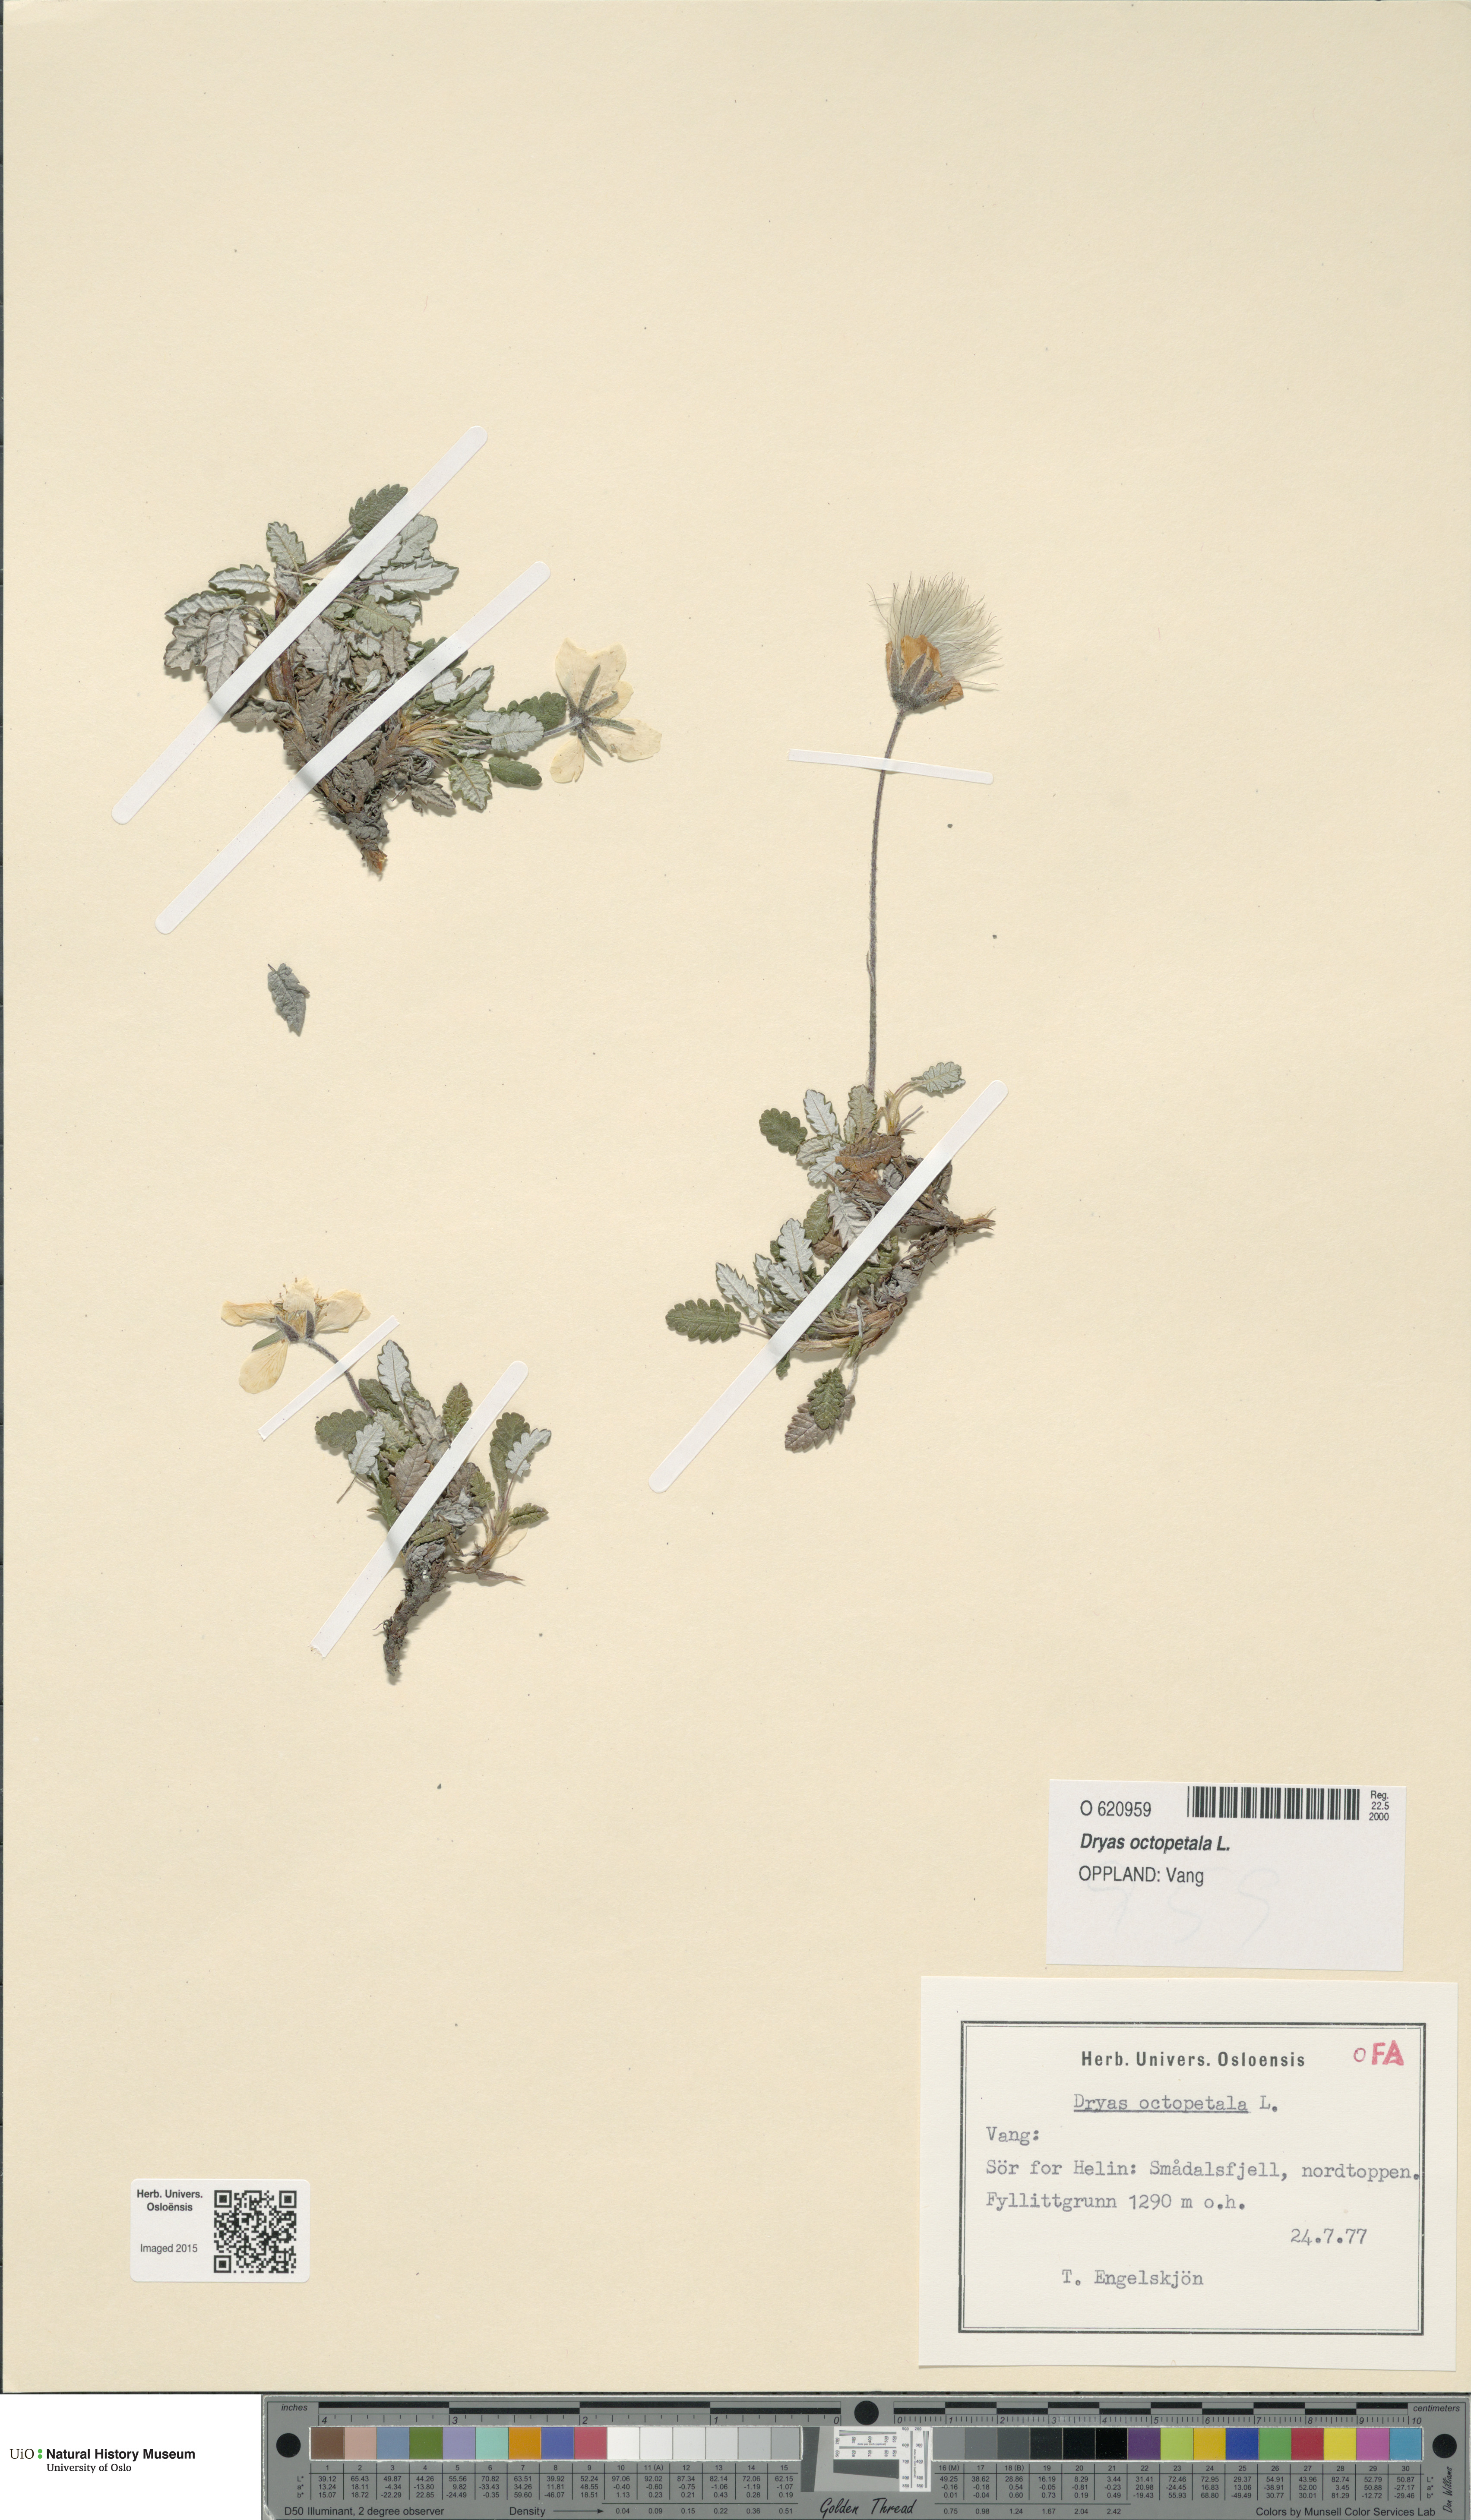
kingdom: Plantae
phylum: Tracheophyta
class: Magnoliopsida
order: Rosales
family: Rosaceae
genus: Dryas
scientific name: Dryas octopetala
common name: Eight-petal mountain-avens
